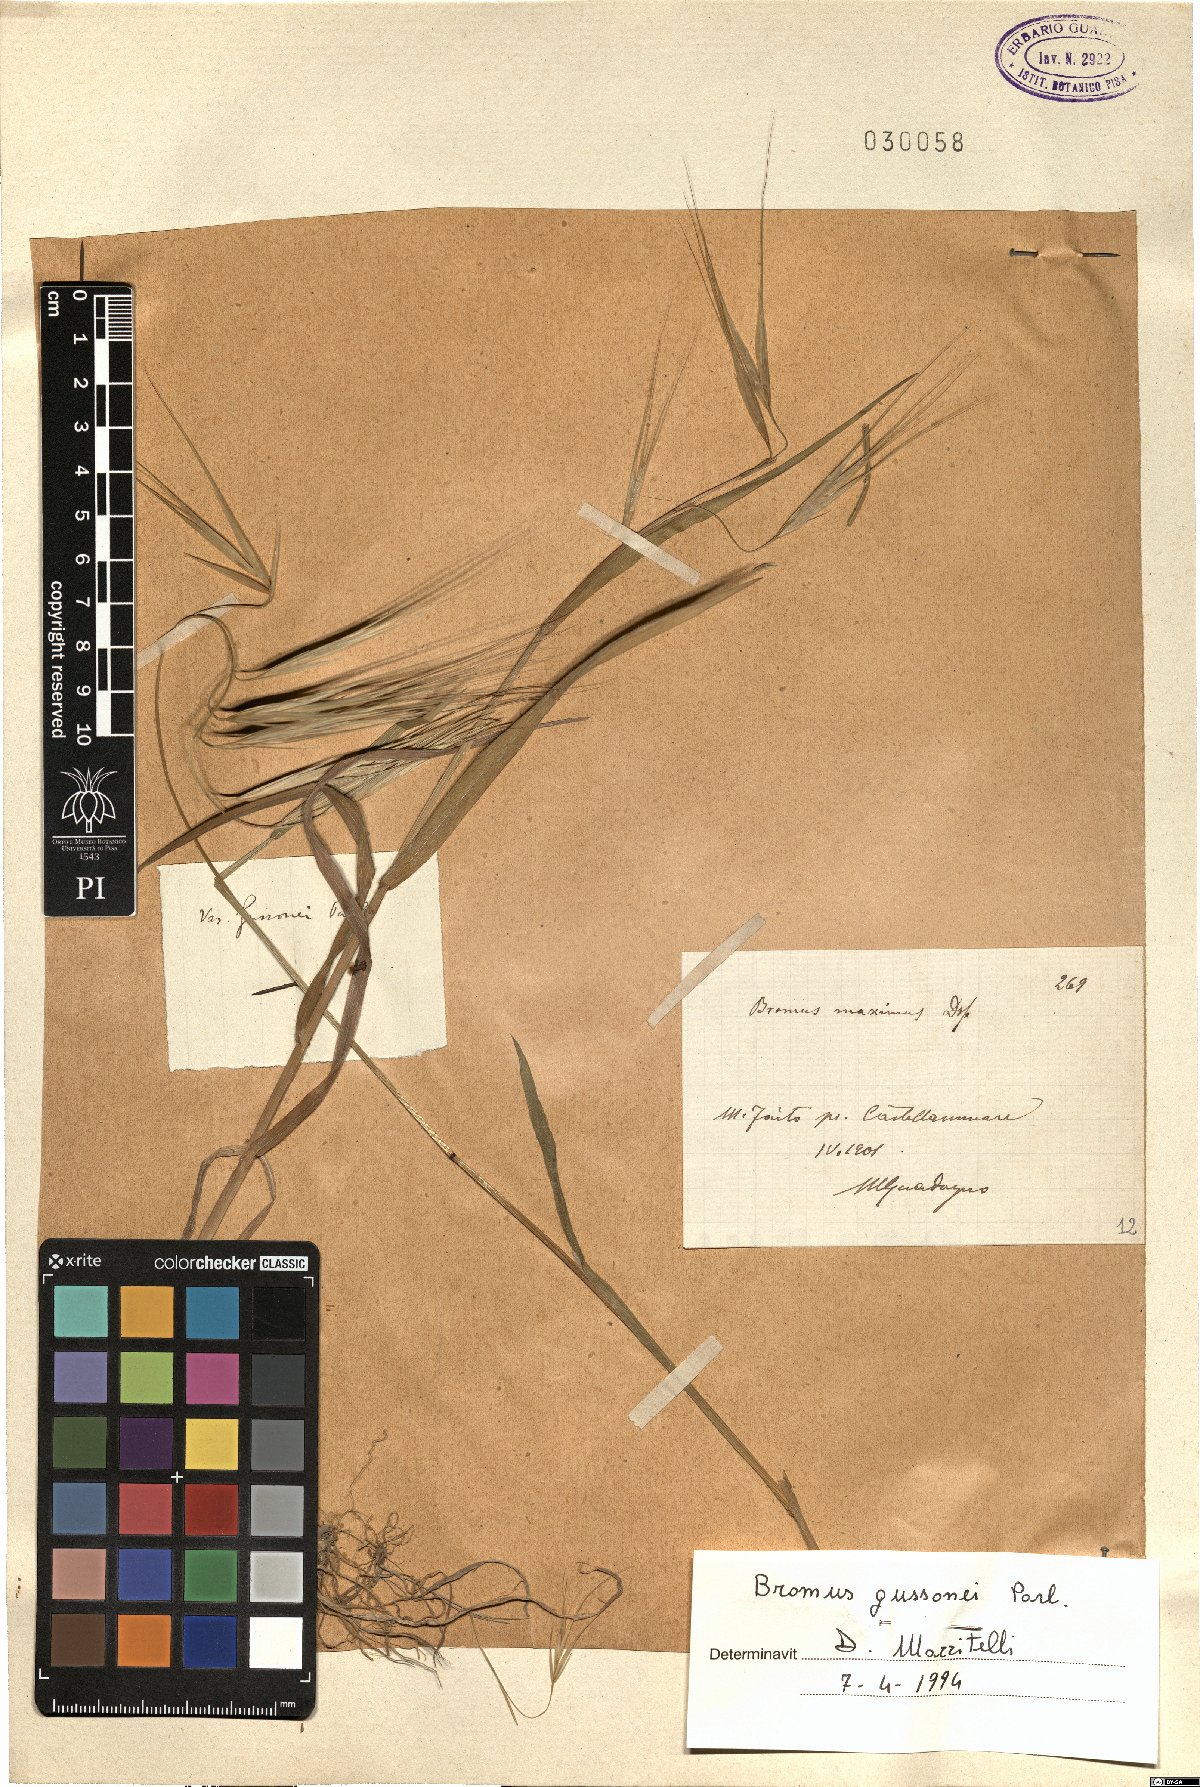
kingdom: Plantae
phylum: Tracheophyta
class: Liliopsida
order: Poales
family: Poaceae
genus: Bromus
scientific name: Bromus diandrus
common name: Ripgut brome
